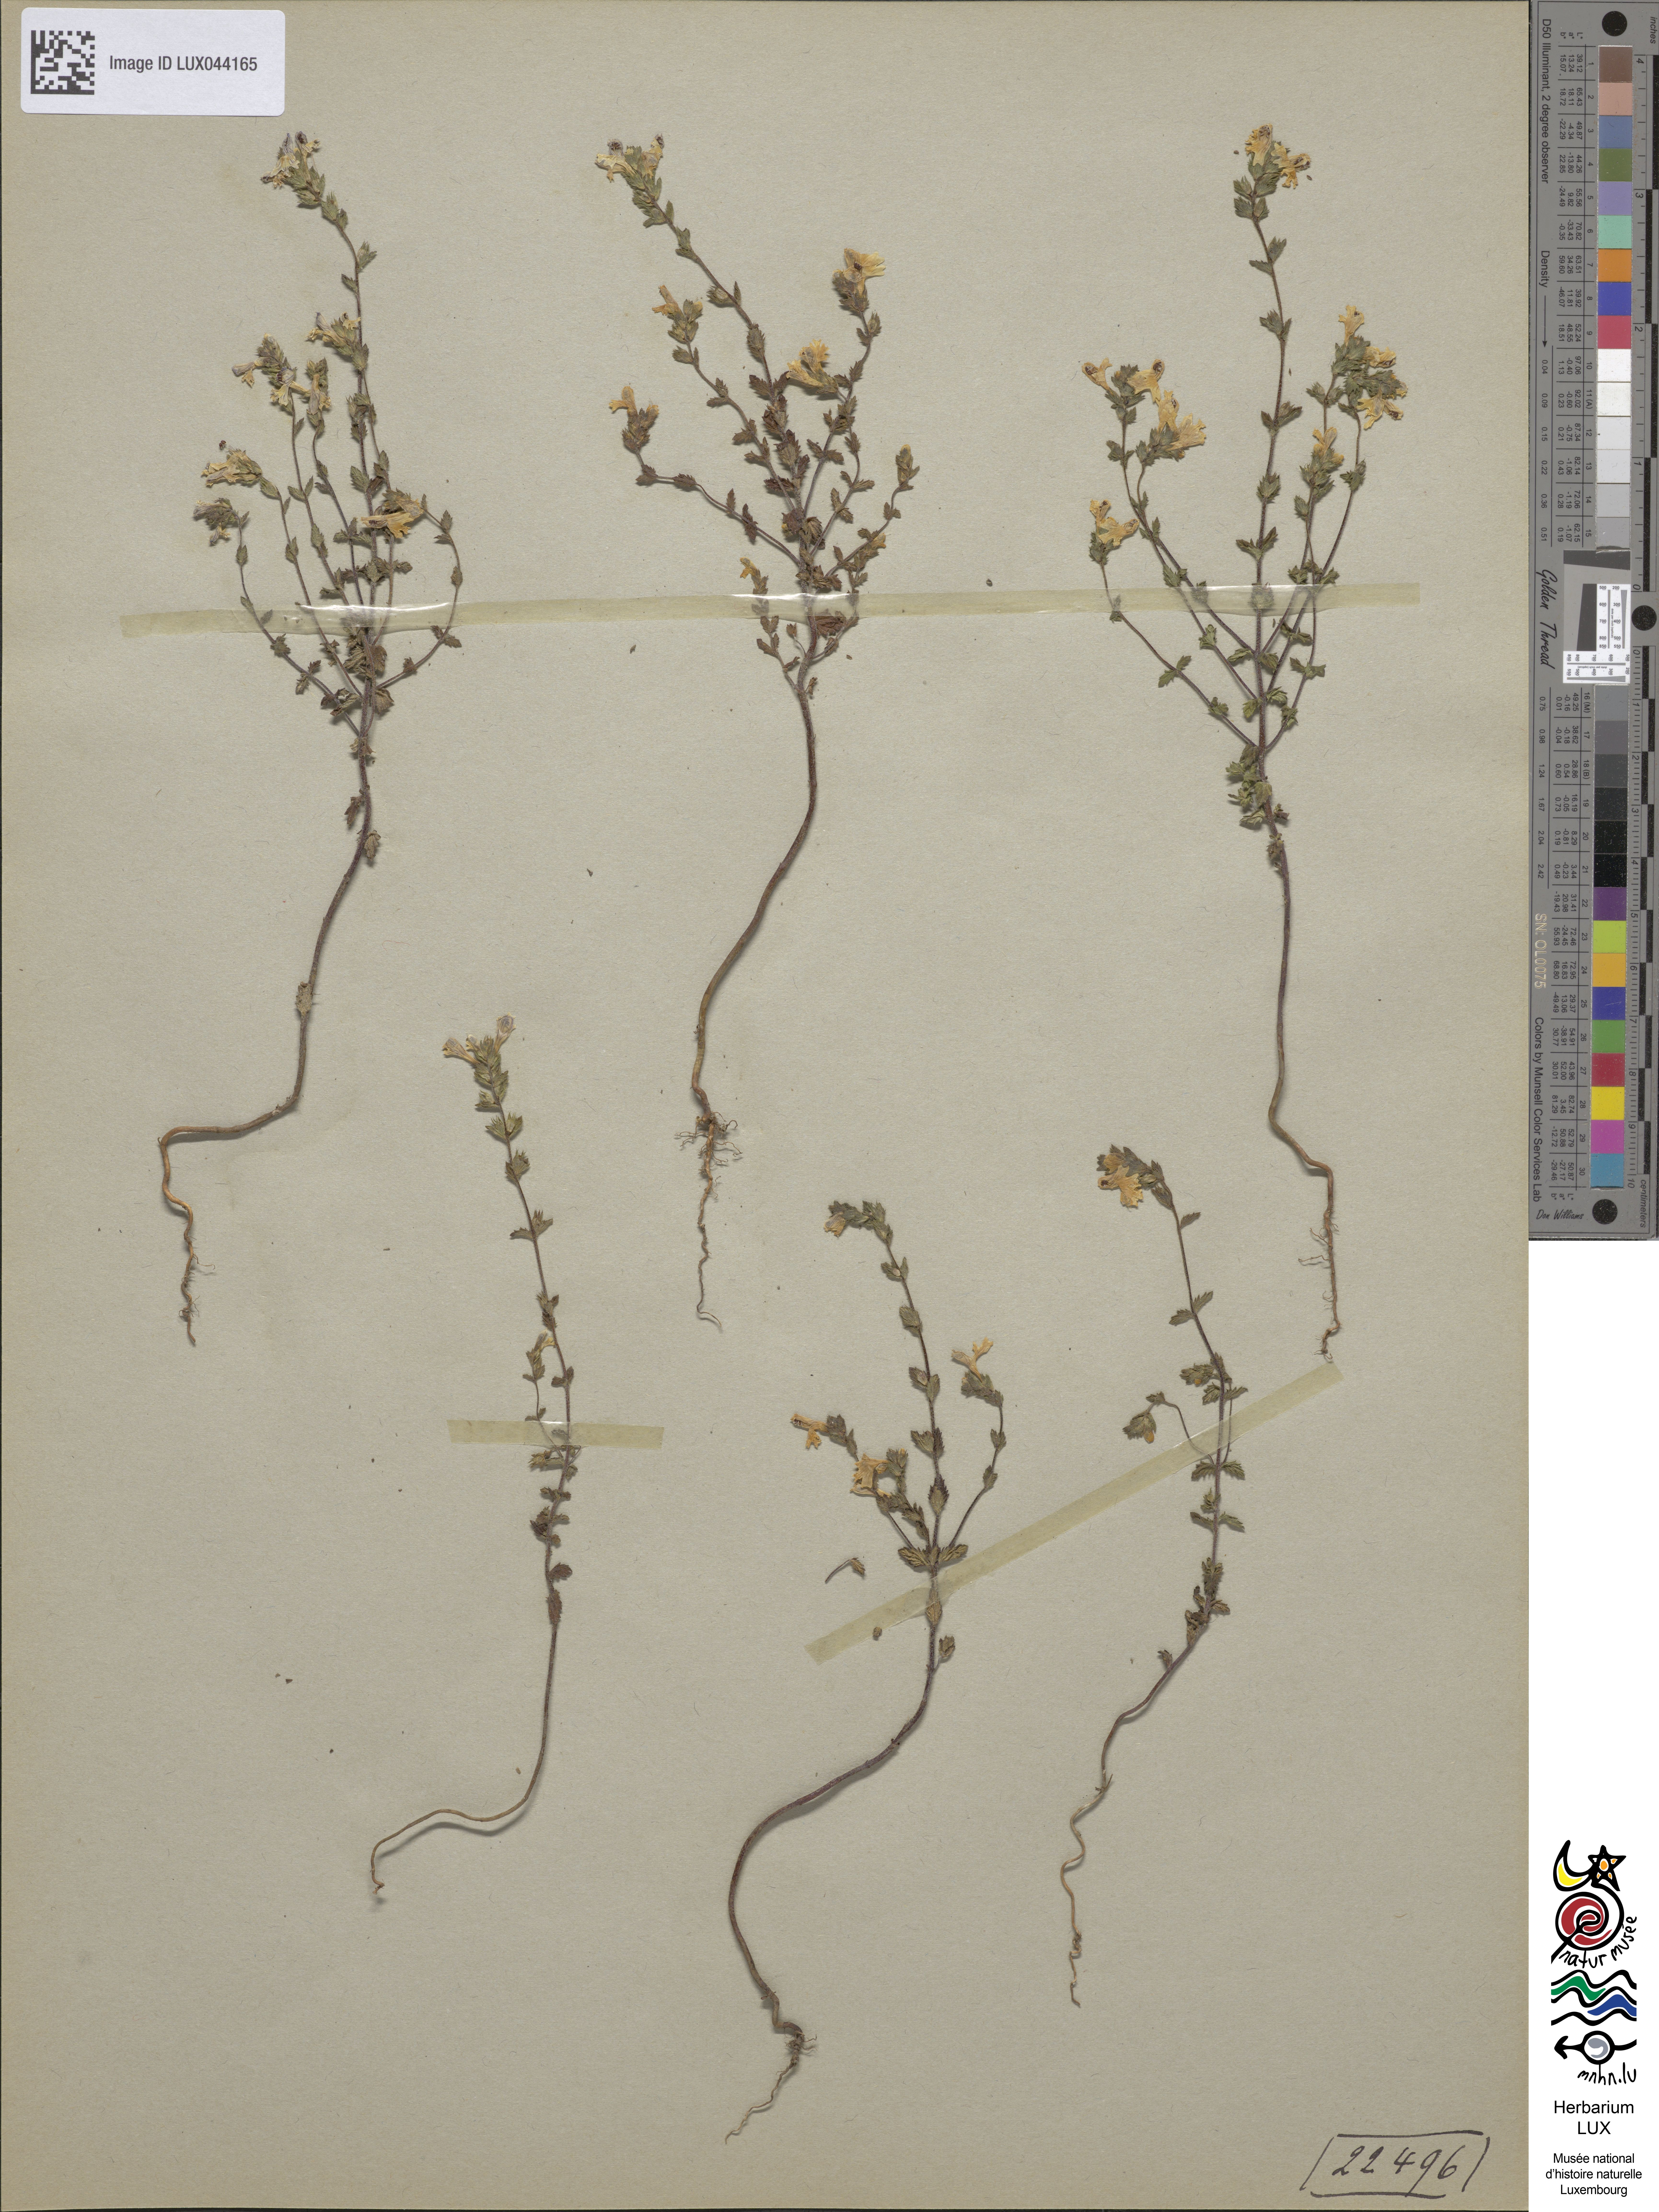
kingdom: Plantae
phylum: Tracheophyta
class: Magnoliopsida
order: Lamiales
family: Orobanchaceae
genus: Euphrasia
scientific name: Euphrasia officinalis
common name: Eyebright
